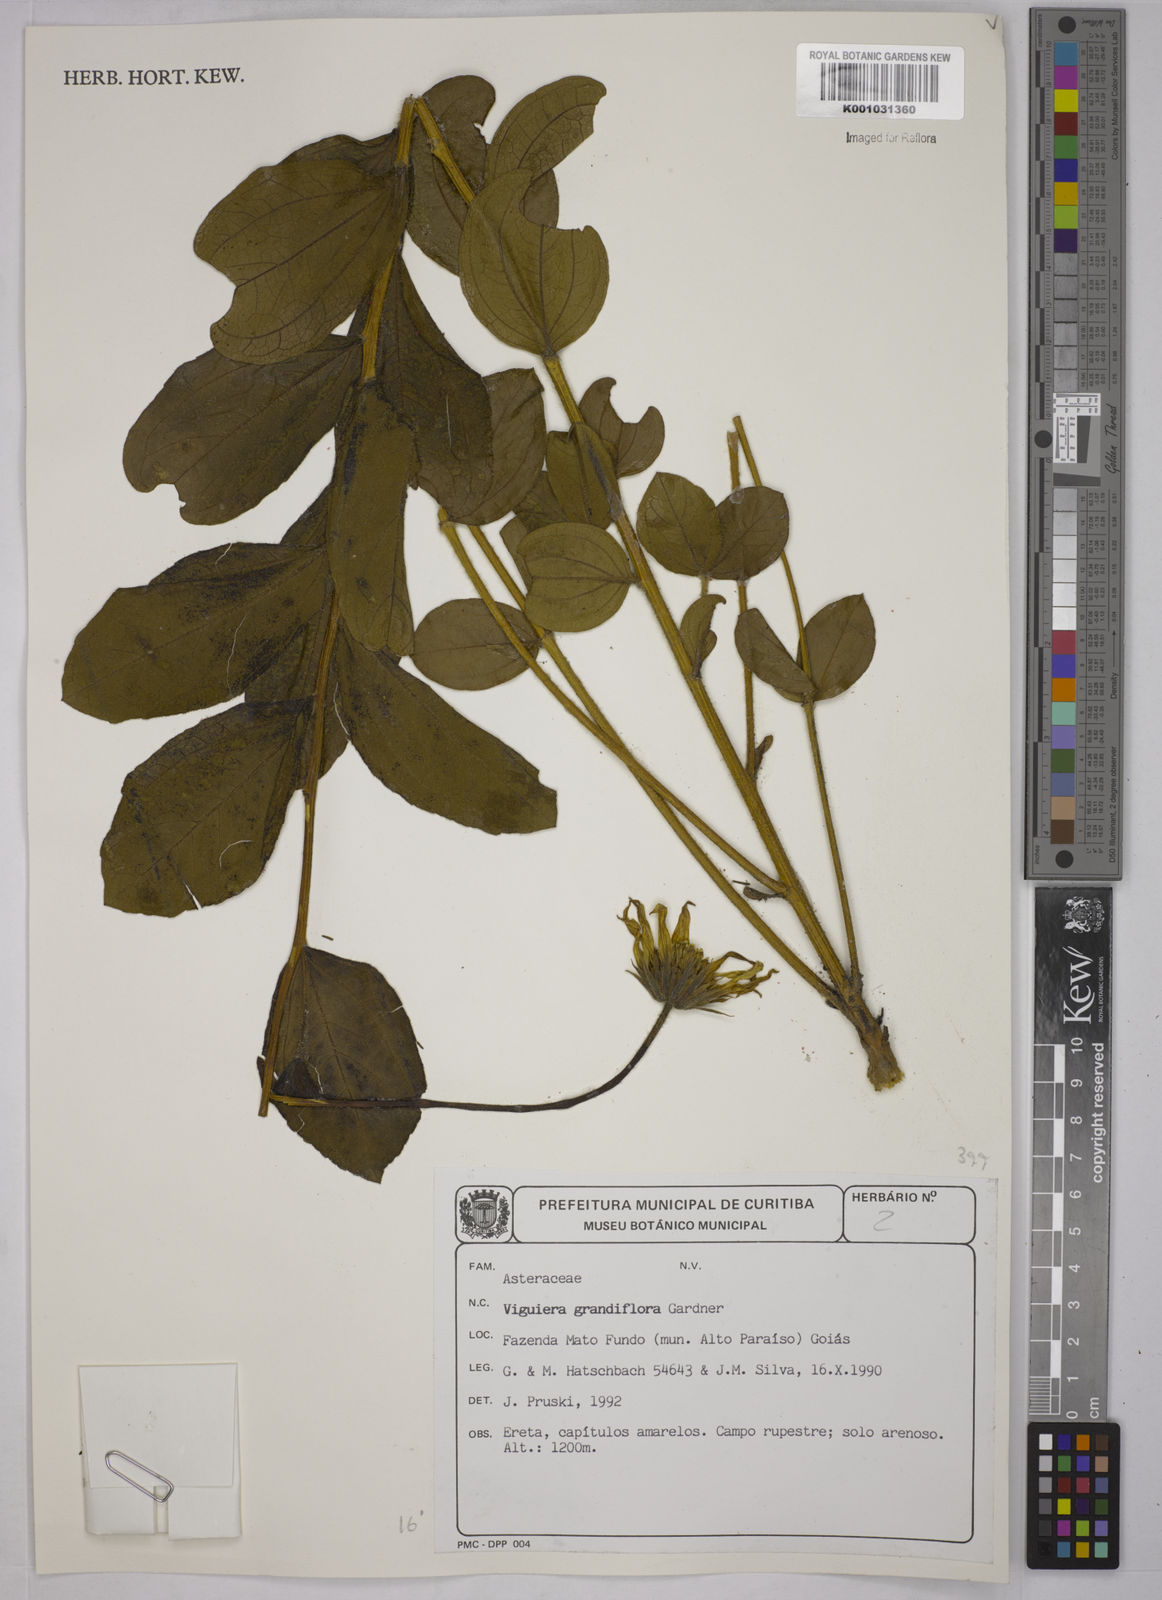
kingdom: Plantae
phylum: Tracheophyta
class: Magnoliopsida
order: Asterales
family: Asteraceae
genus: Aldama
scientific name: Aldama grandiflora
